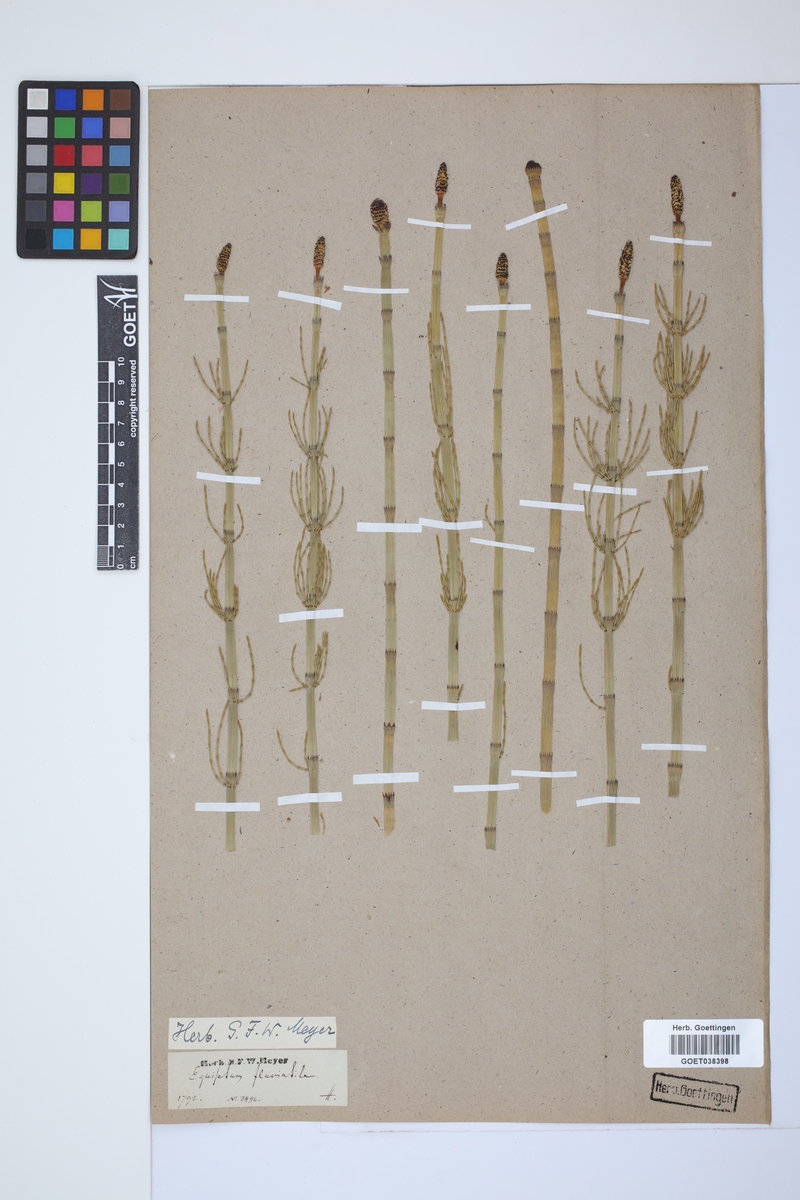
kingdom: Plantae
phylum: Tracheophyta
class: Polypodiopsida
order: Equisetales
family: Equisetaceae
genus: Equisetum
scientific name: Equisetum fluviatile
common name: Water horsetail
